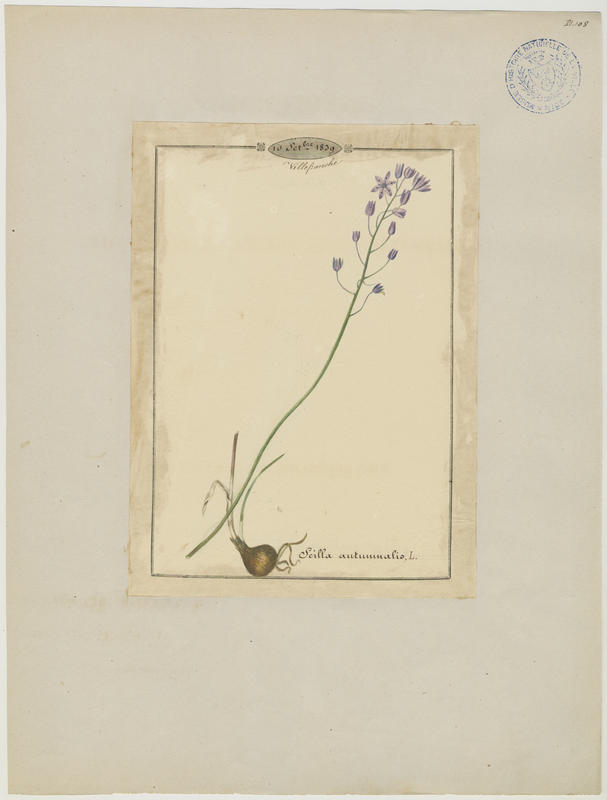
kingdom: Plantae
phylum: Tracheophyta
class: Liliopsida
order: Asparagales
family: Asparagaceae
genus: Prospero
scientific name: Prospero autumnale
